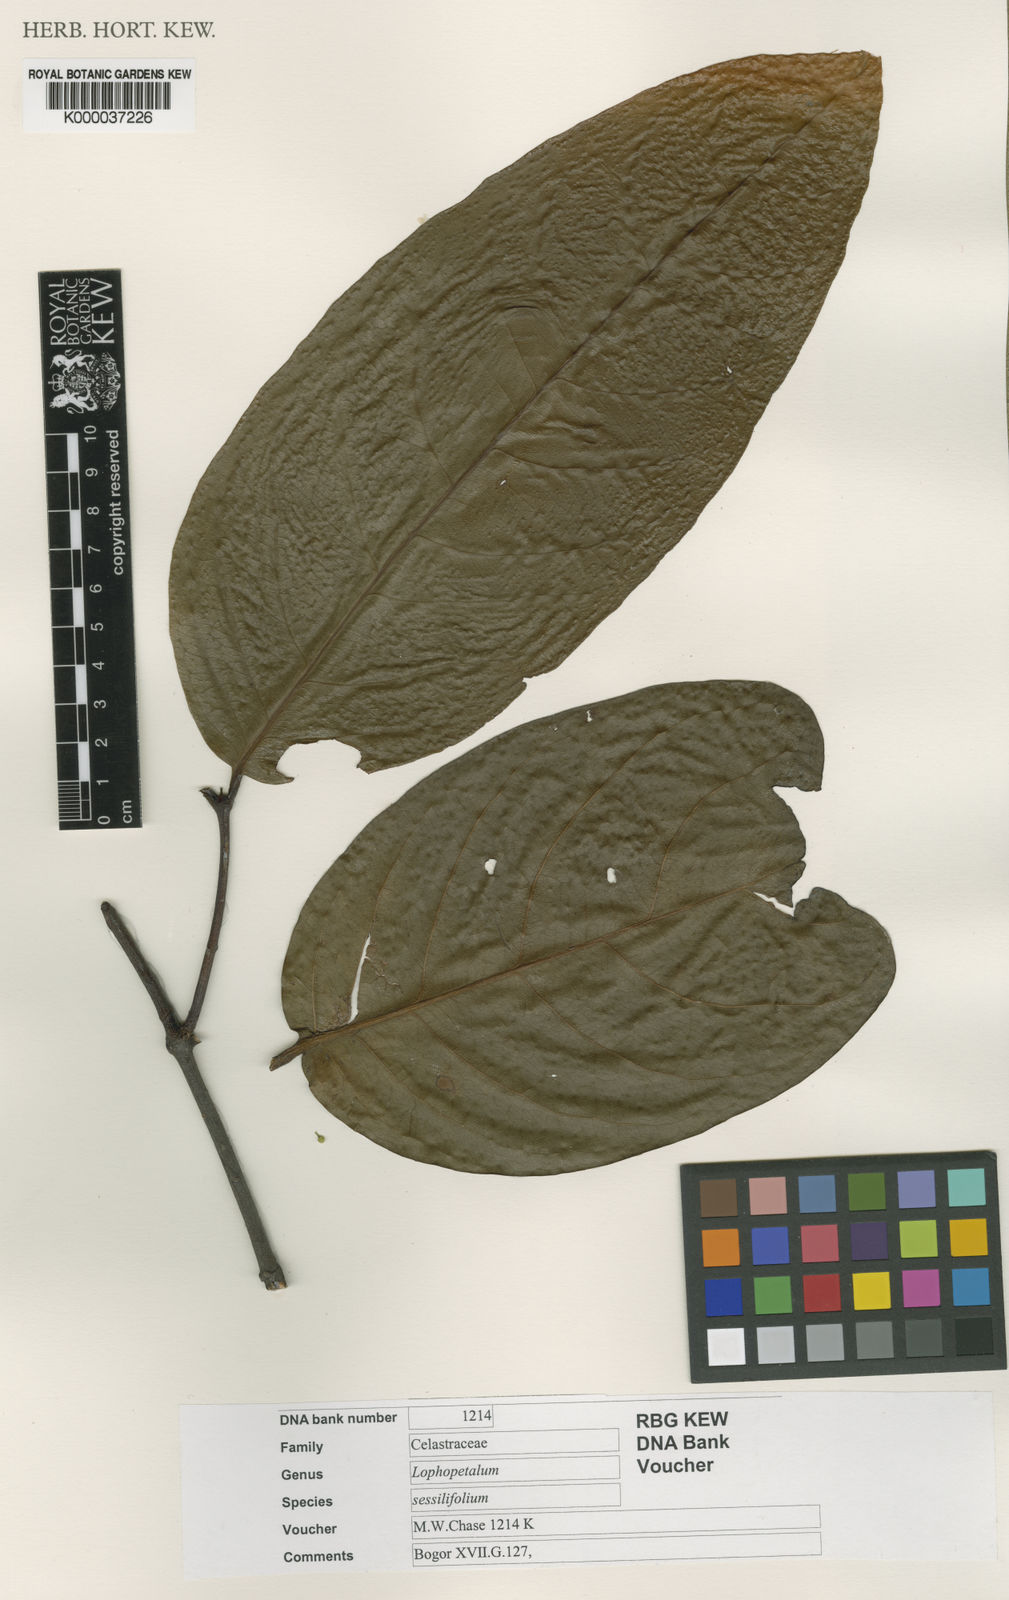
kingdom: Plantae
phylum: Tracheophyta
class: Magnoliopsida
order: Celastrales
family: Celastraceae
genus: Lophopetalum
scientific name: Lophopetalum sessilifolium
